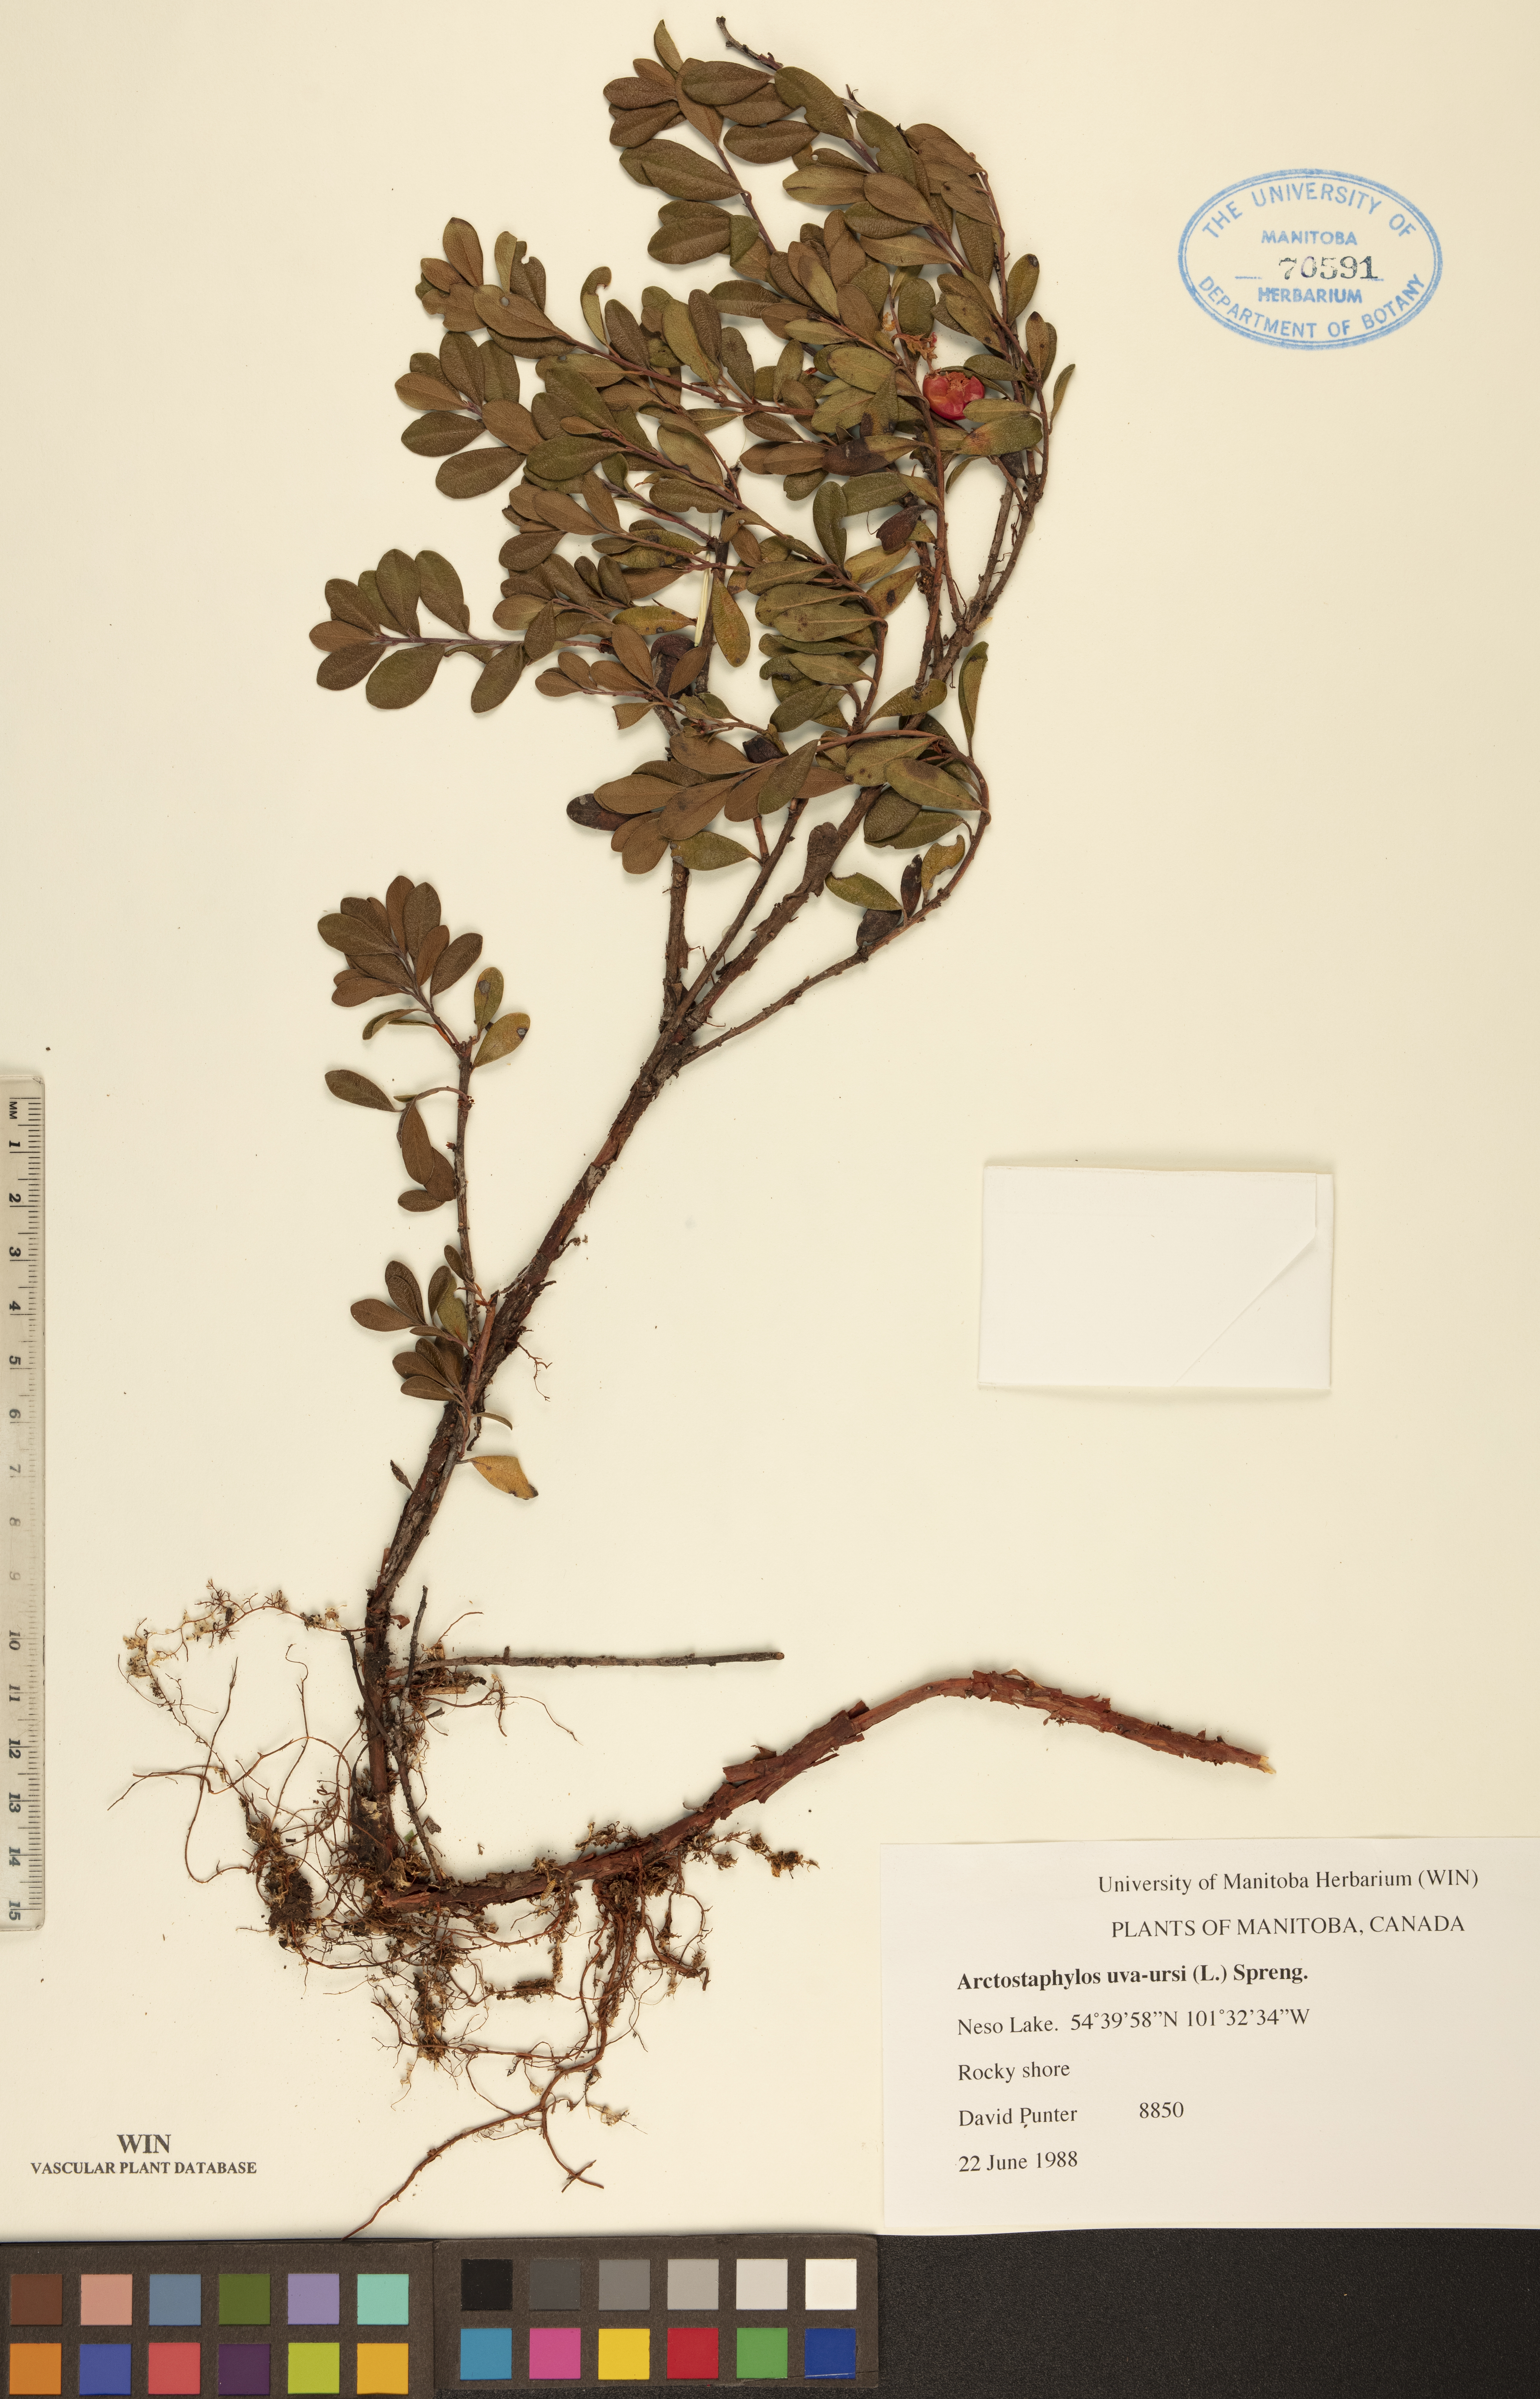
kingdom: Plantae
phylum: Tracheophyta
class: Magnoliopsida
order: Ericales
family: Ericaceae
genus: Arctostaphylos
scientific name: Arctostaphylos uva-ursi
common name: Bearberry
